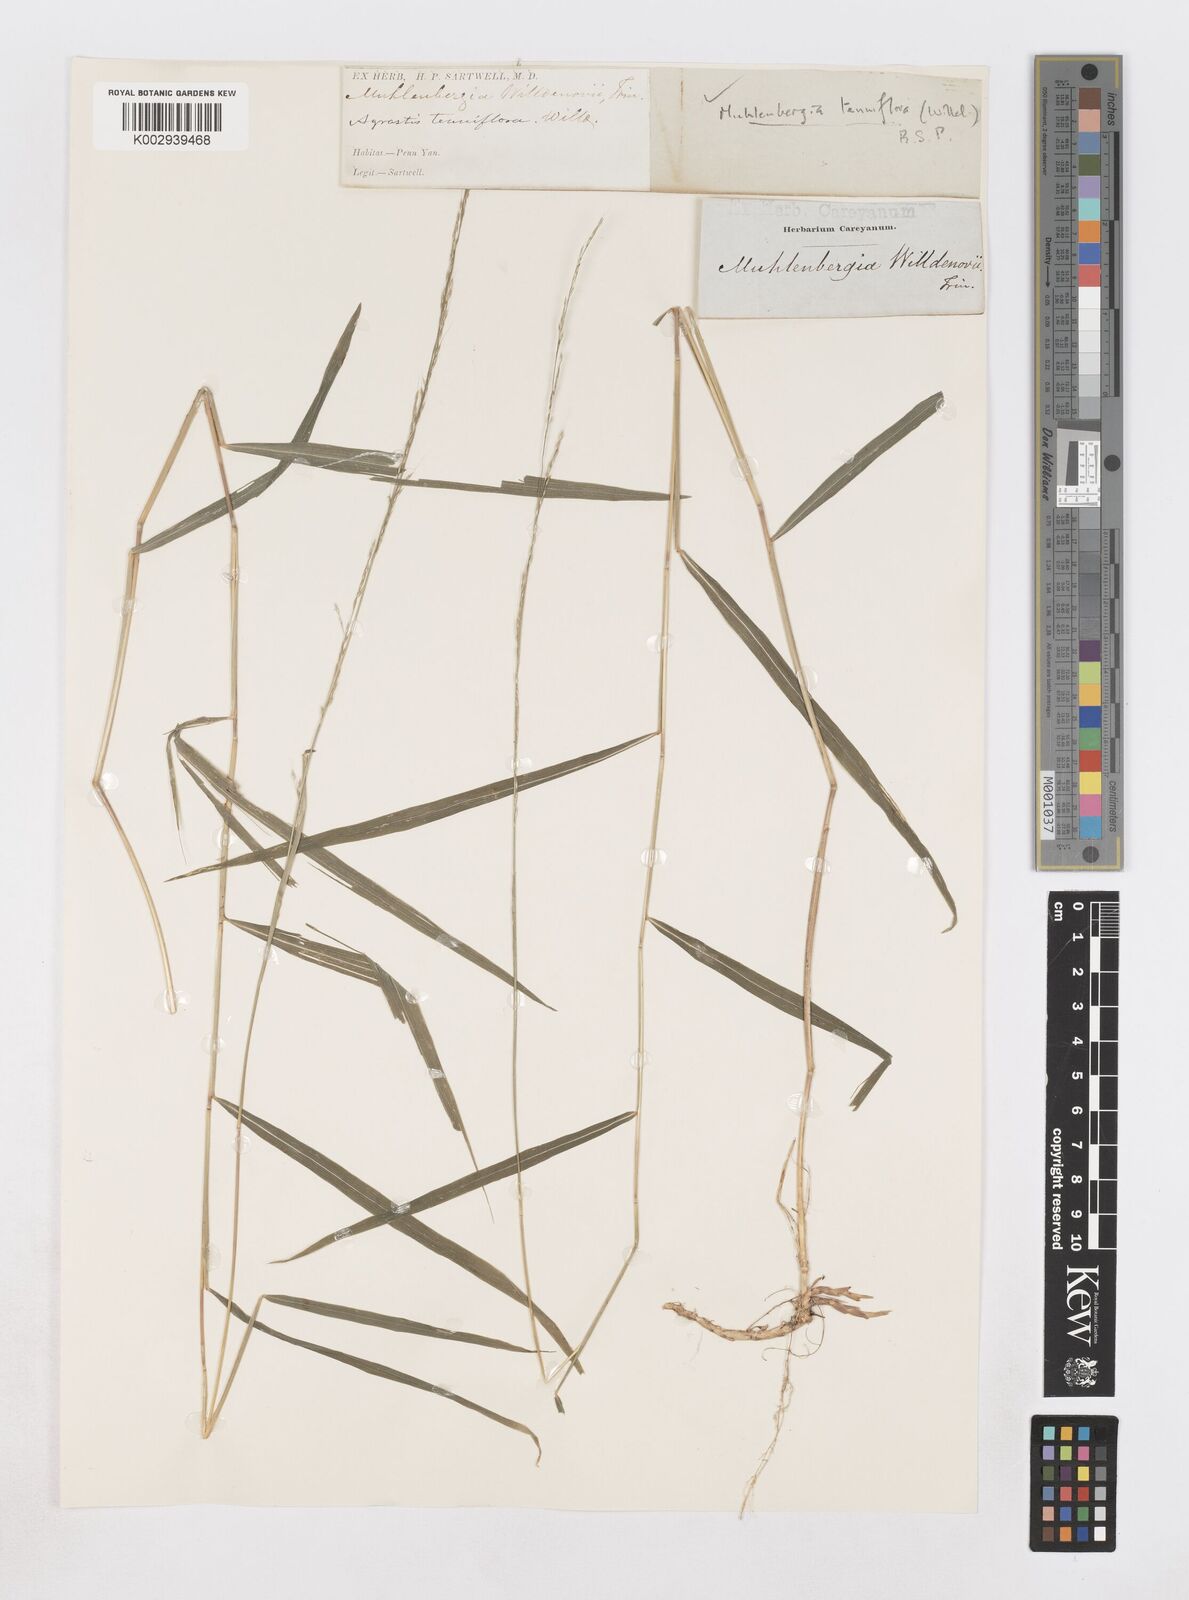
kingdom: Plantae
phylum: Tracheophyta
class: Liliopsida
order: Poales
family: Poaceae
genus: Muhlenbergia
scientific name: Muhlenbergia tenuiflora
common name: Slender muhly
